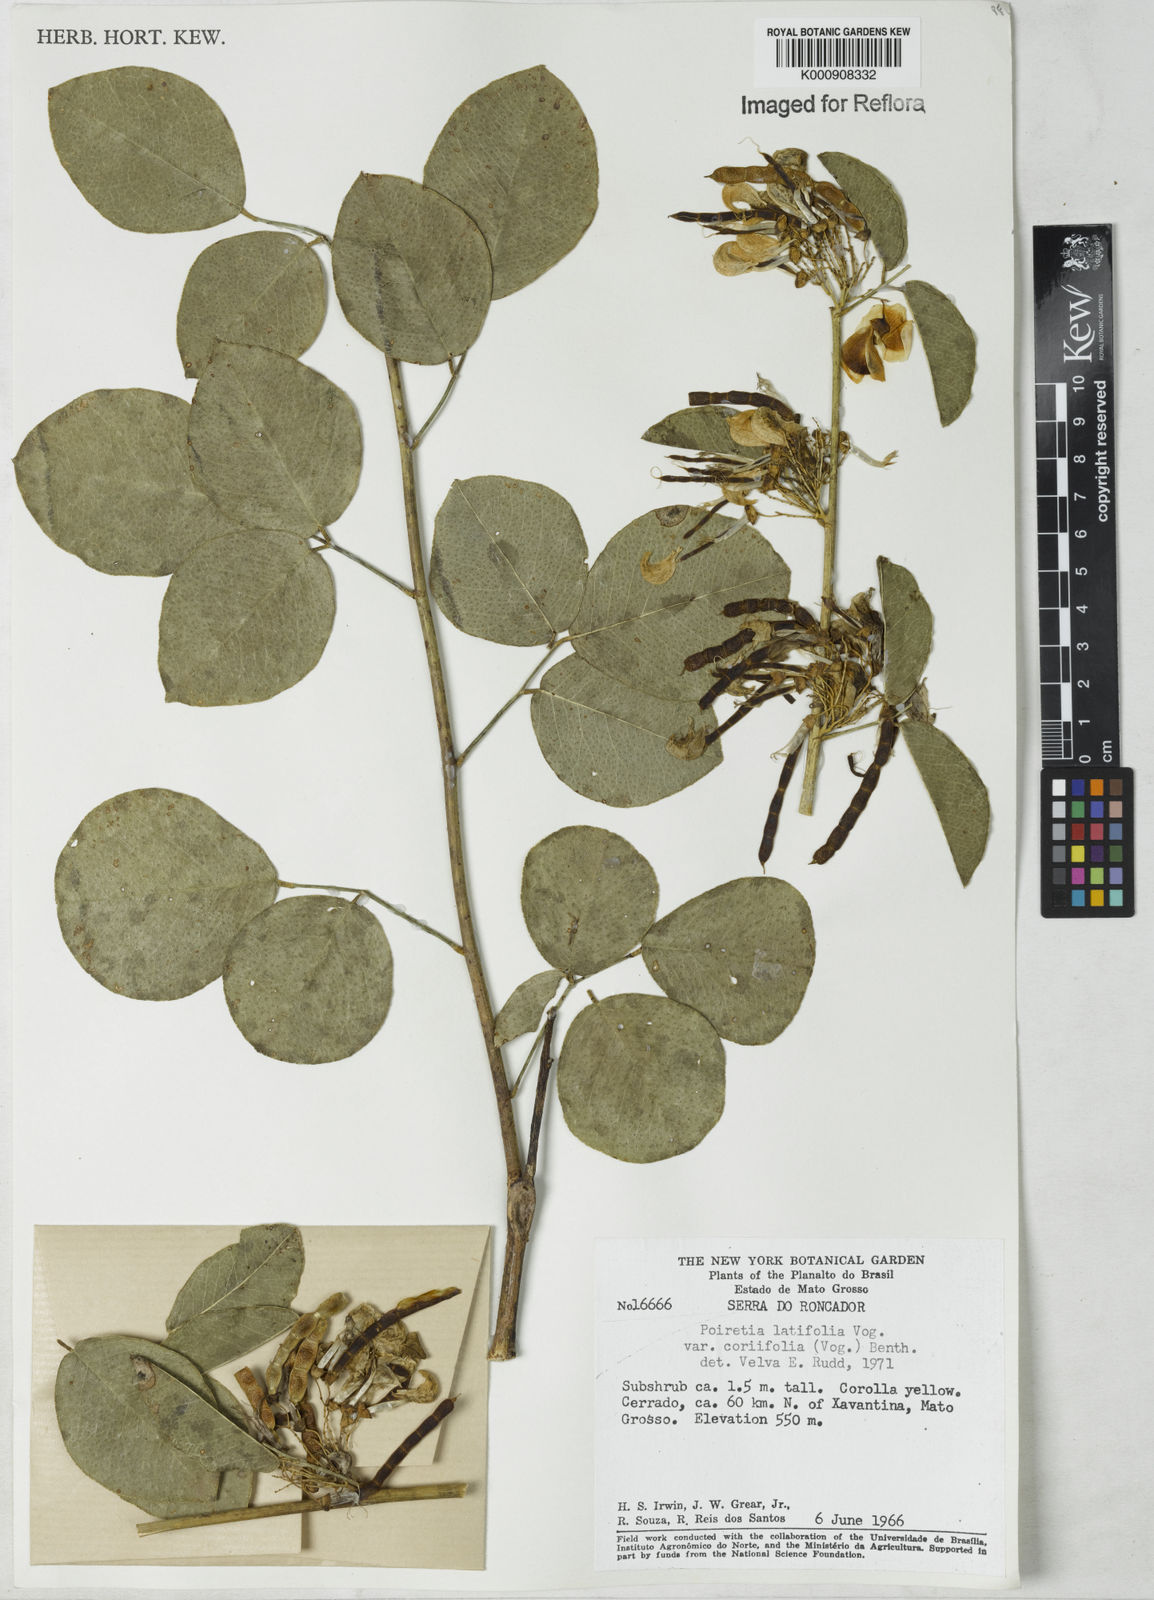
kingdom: Plantae
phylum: Tracheophyta
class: Magnoliopsida
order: Fabales
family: Fabaceae
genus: Poiretia
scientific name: Poiretia coriifolia
